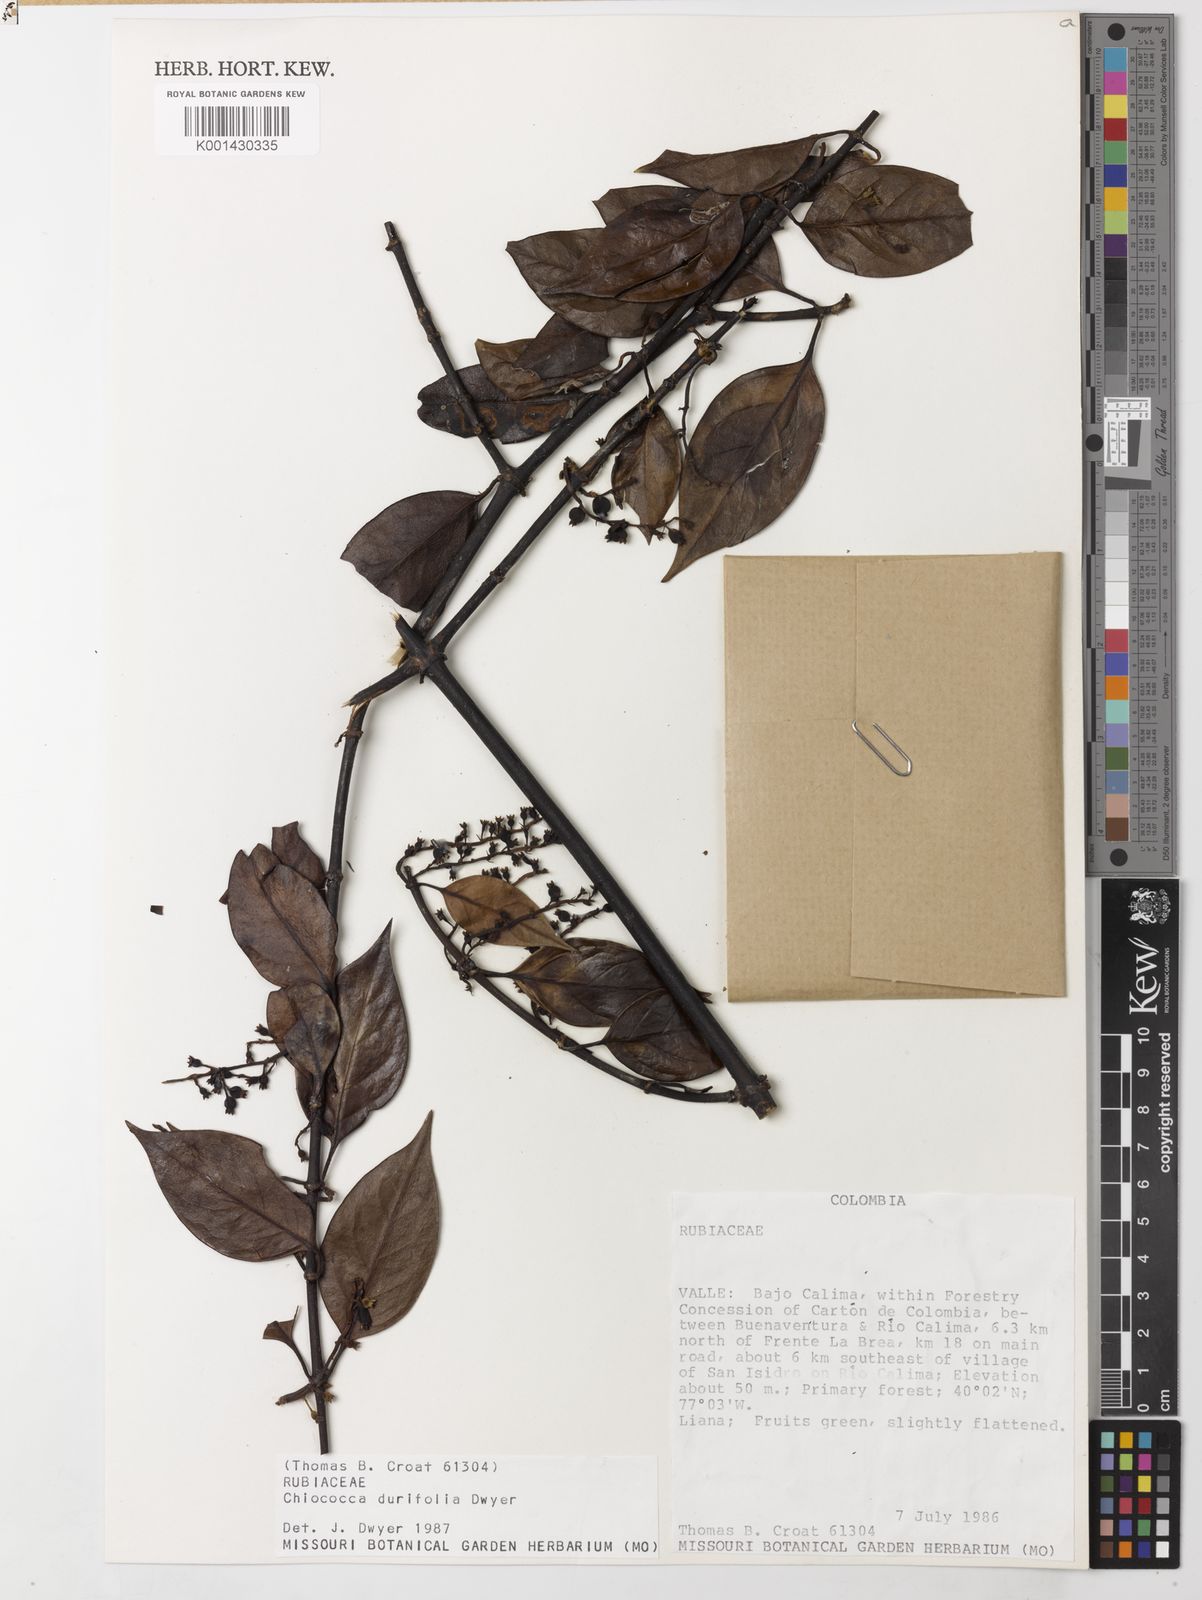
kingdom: Plantae
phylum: Tracheophyta
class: Magnoliopsida
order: Gentianales
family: Rubiaceae
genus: Chiococca
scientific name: Chiococca belizensis
